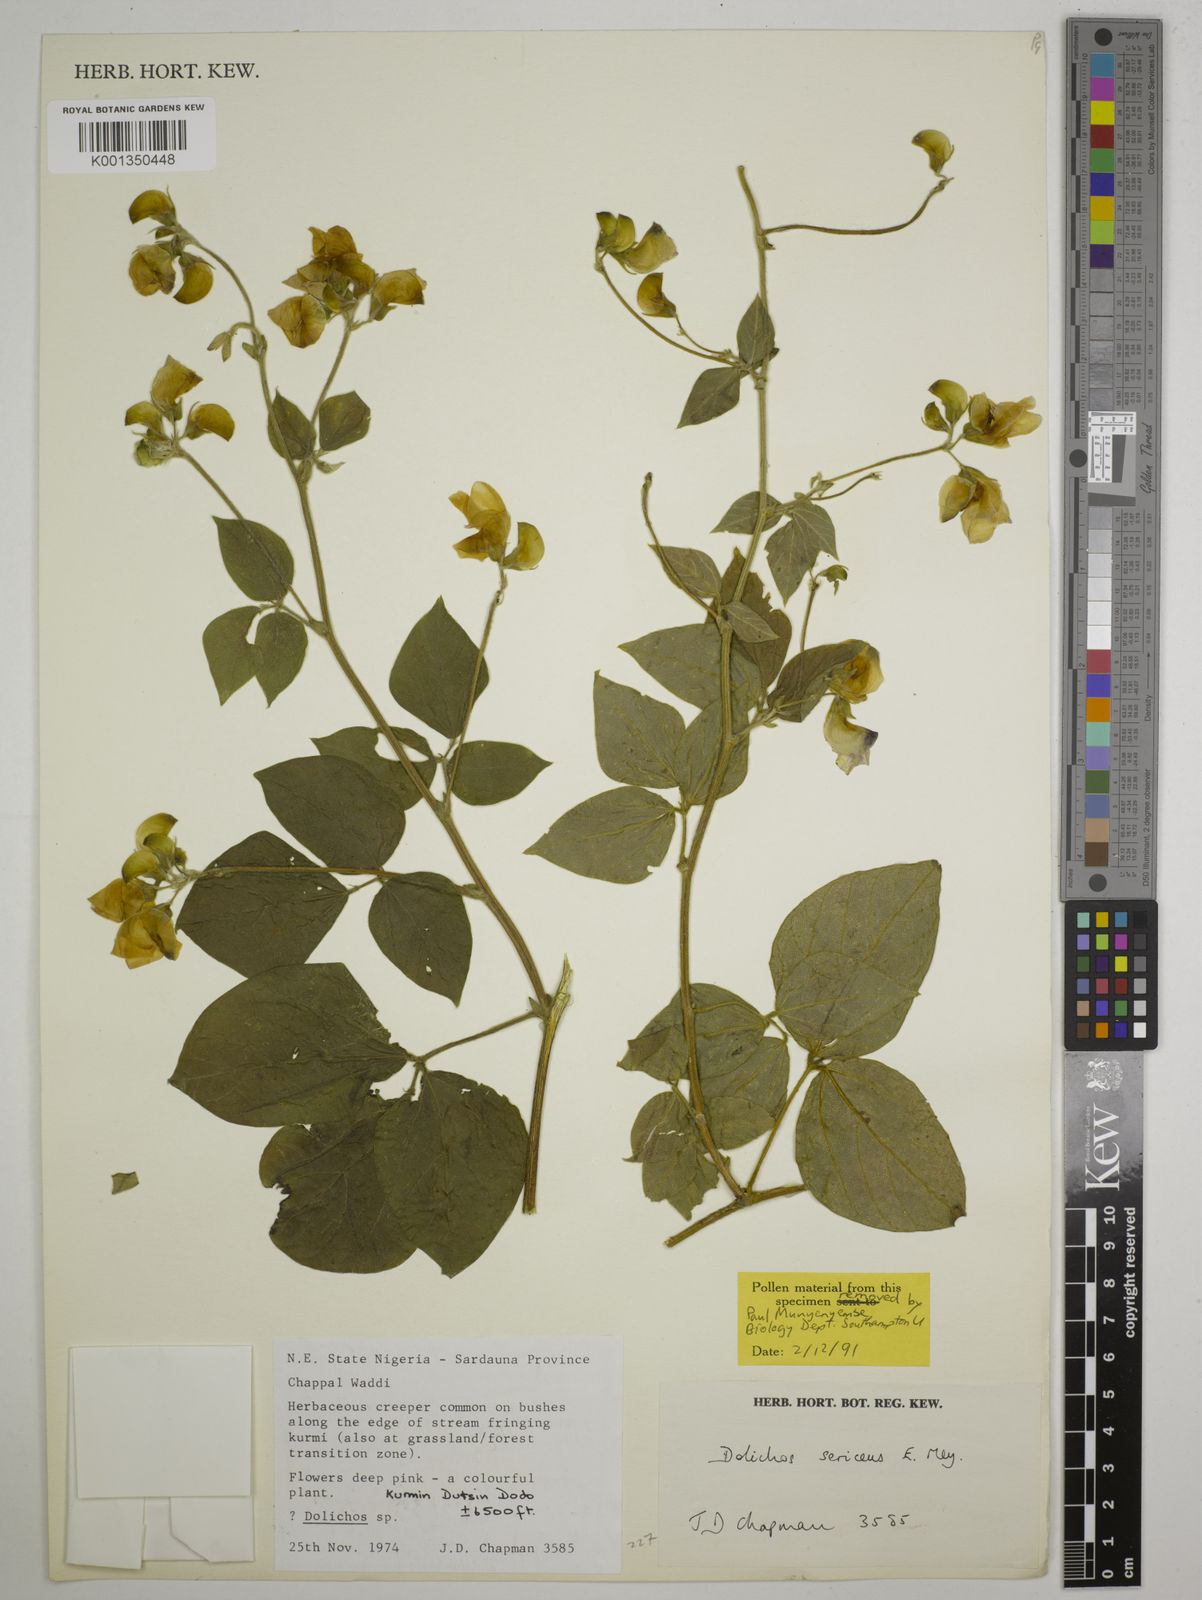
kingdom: Plantae
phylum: Tracheophyta
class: Magnoliopsida
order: Fabales
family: Fabaceae
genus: Dolichos
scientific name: Dolichos sericeus
